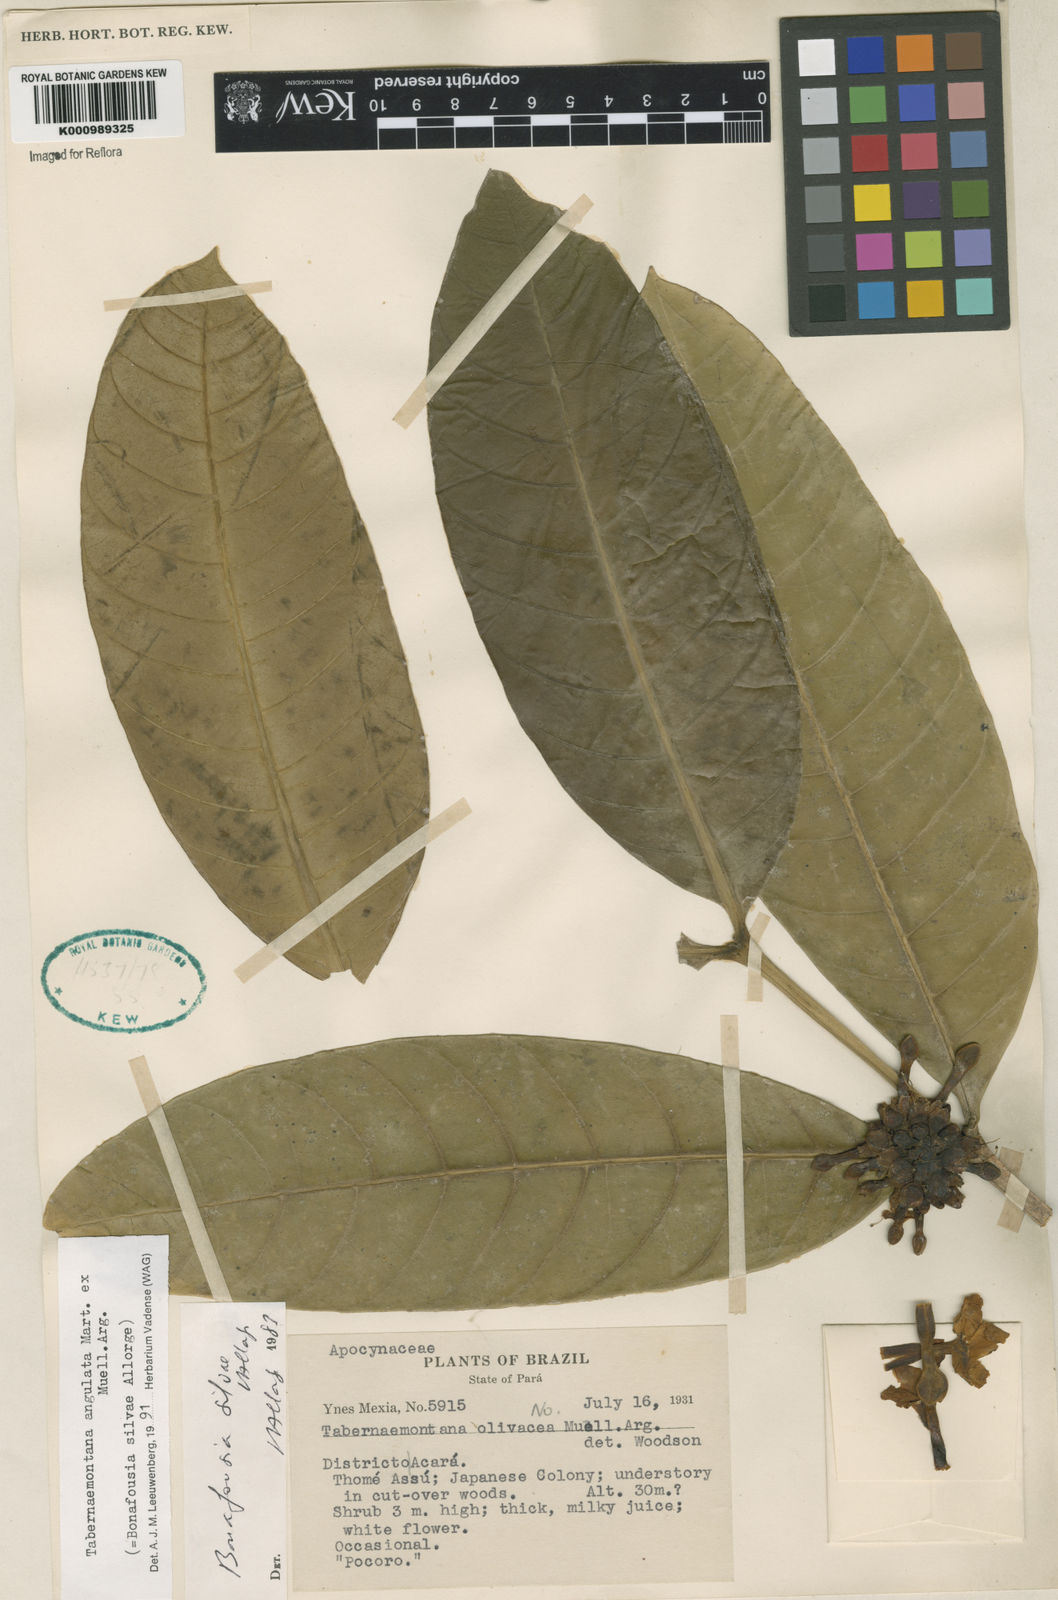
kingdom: Plantae
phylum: Tracheophyta
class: Magnoliopsida
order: Gentianales
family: Apocynaceae
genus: Tabernaemontana
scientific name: Tabernaemontana
